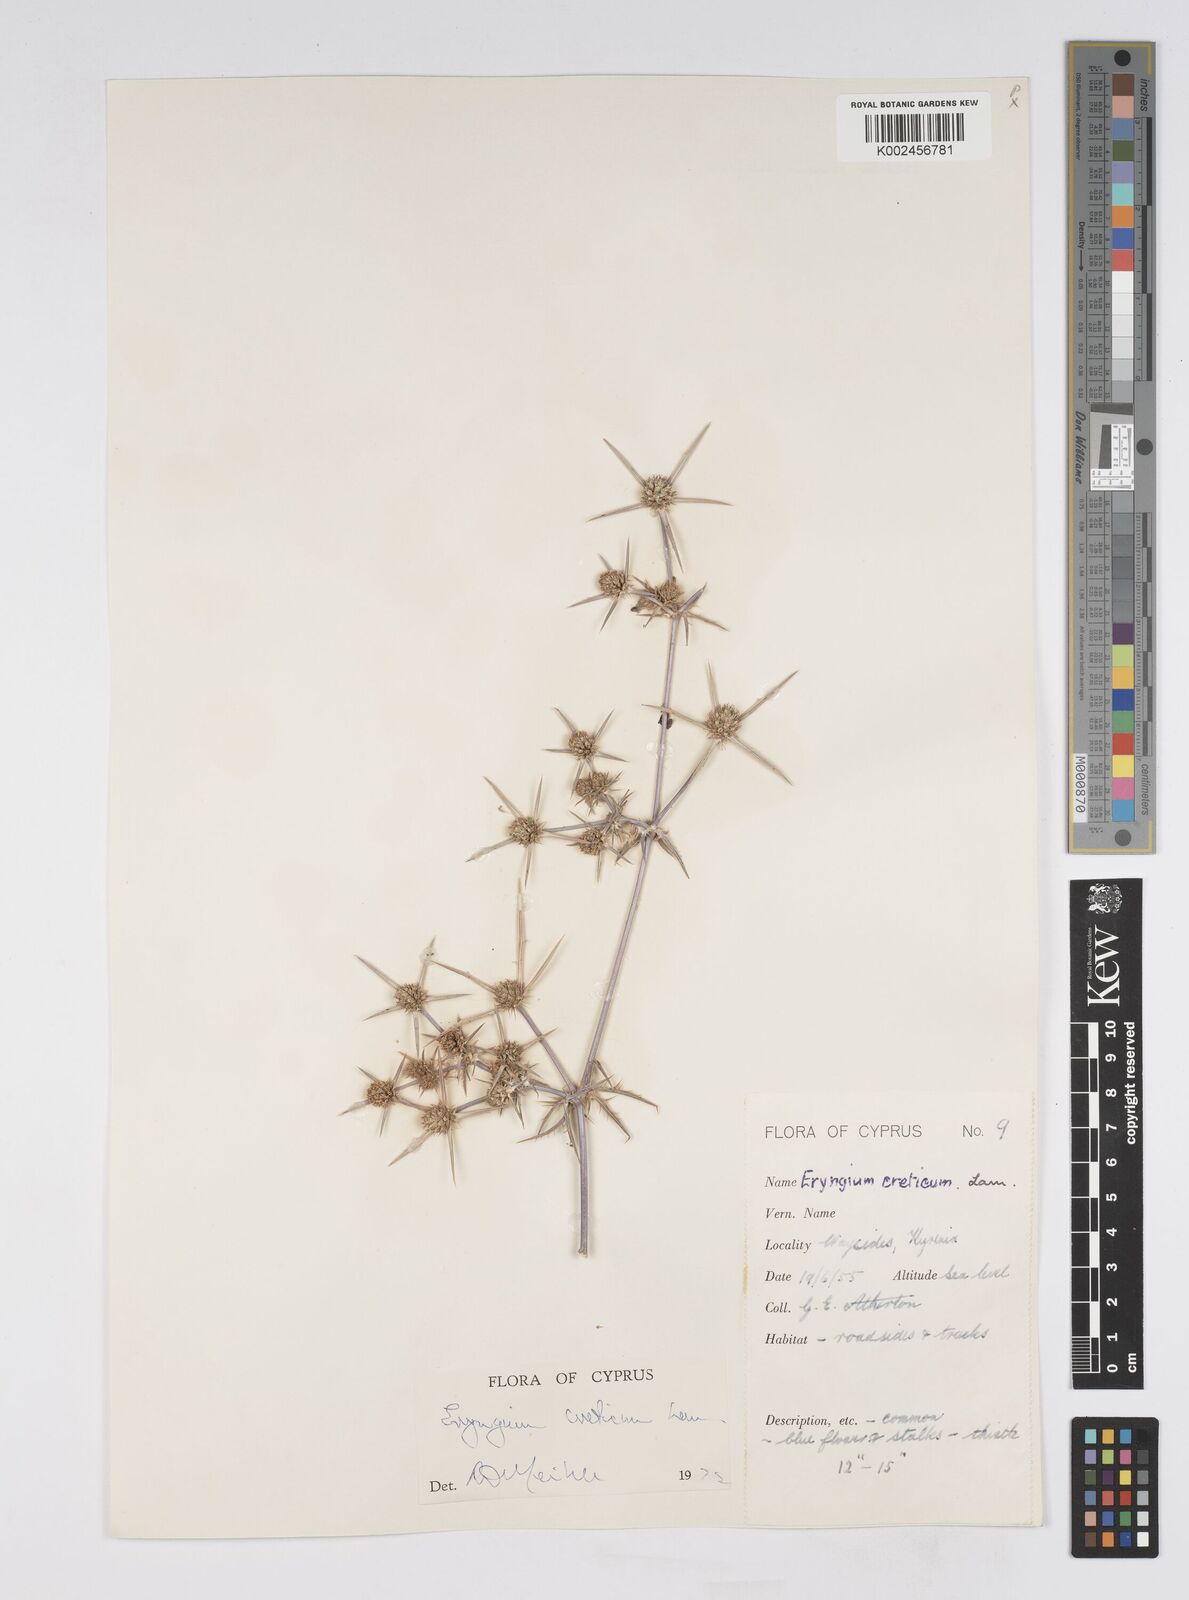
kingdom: Plantae
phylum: Tracheophyta
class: Magnoliopsida
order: Apiales
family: Apiaceae
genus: Eryngium
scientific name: Eryngium creticum
